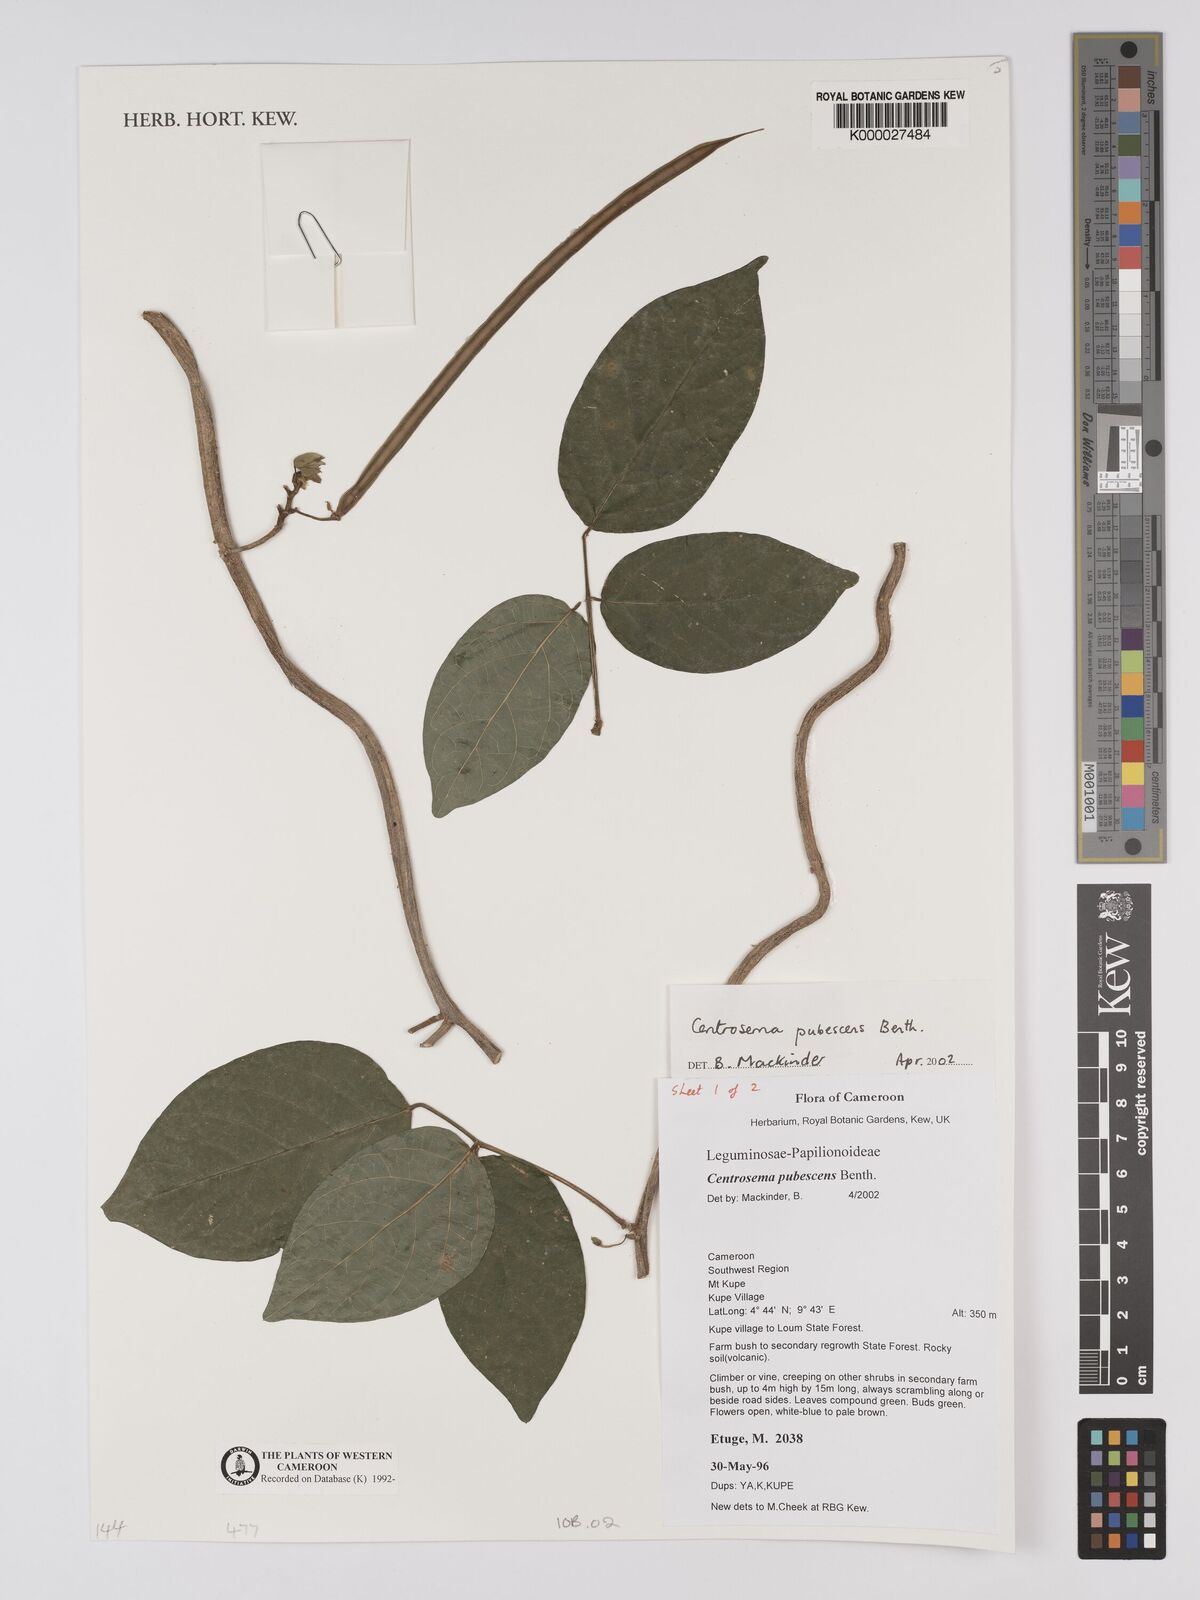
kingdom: Plantae
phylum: Tracheophyta
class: Magnoliopsida
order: Fabales
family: Fabaceae
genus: Centrosema
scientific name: Centrosema pubescens
